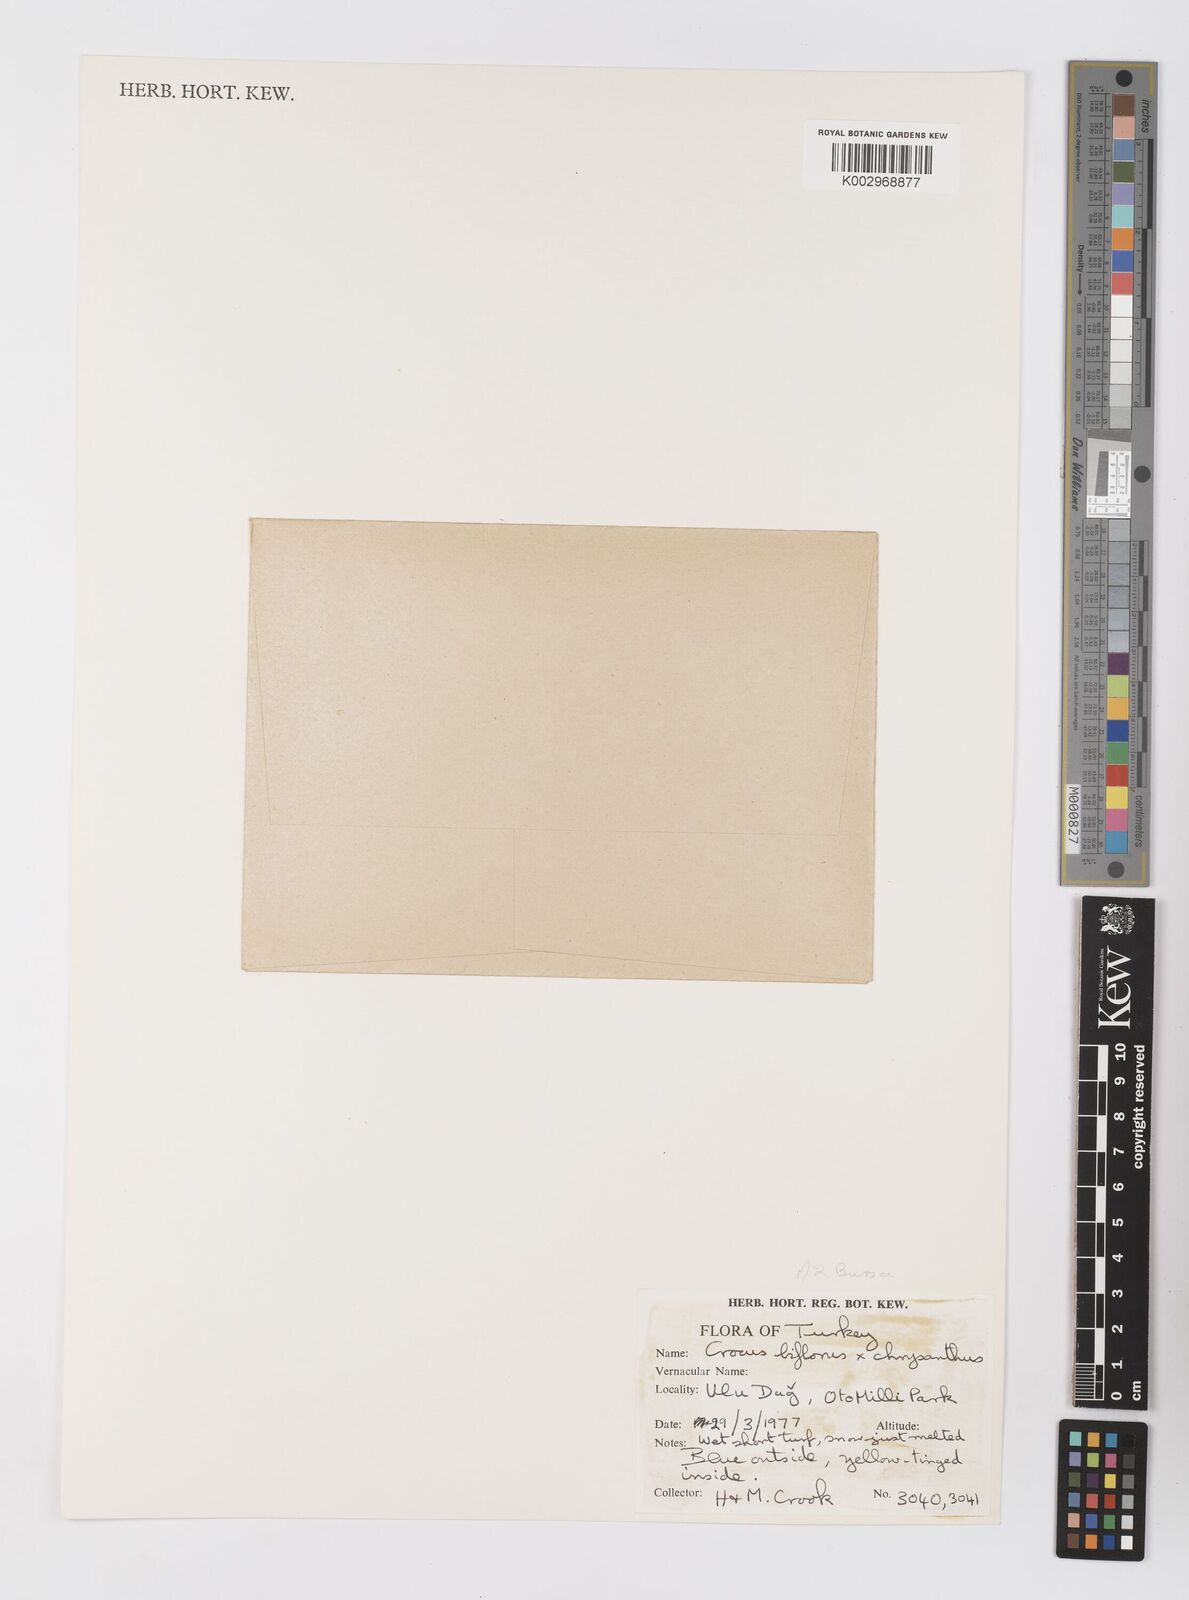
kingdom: Plantae
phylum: Tracheophyta
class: Liliopsida
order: Asparagales
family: Iridaceae
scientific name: Iridaceae
